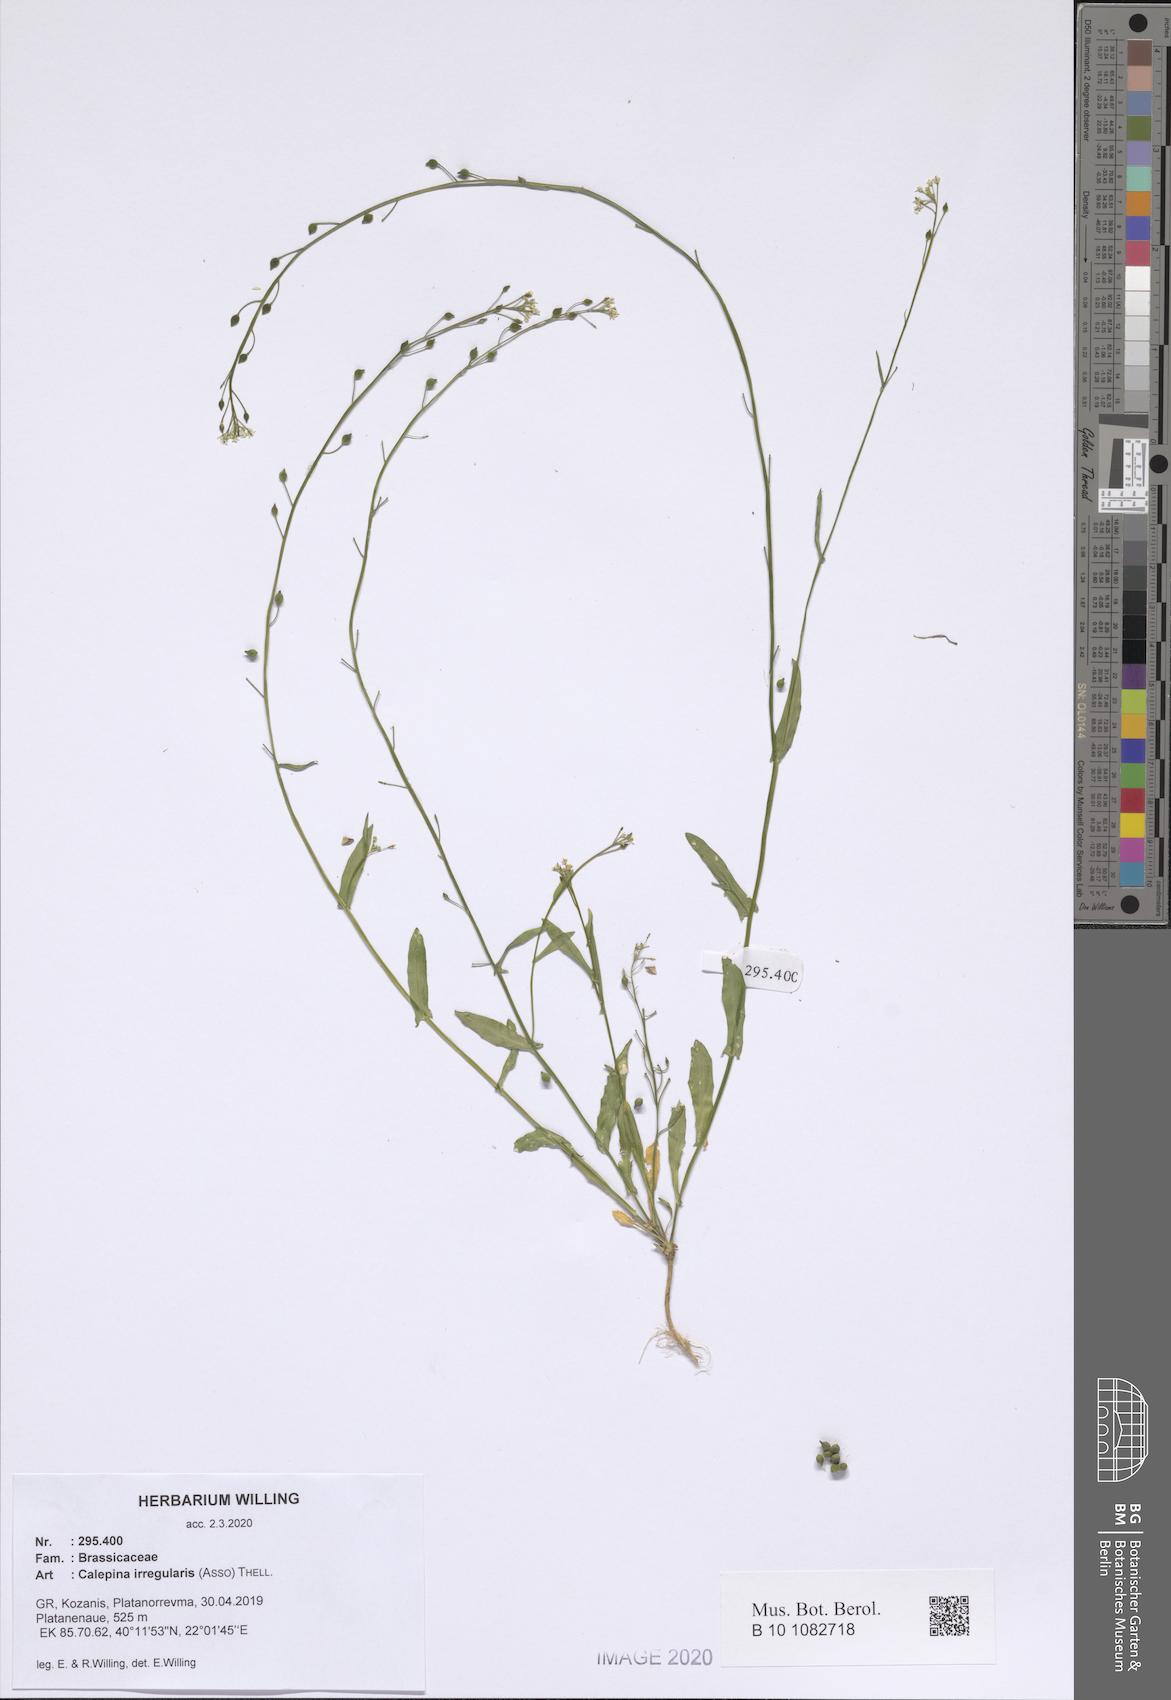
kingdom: Plantae
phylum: Tracheophyta
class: Magnoliopsida
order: Brassicales
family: Brassicaceae
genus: Calepina
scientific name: Calepina irregularis
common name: White ballmustard
